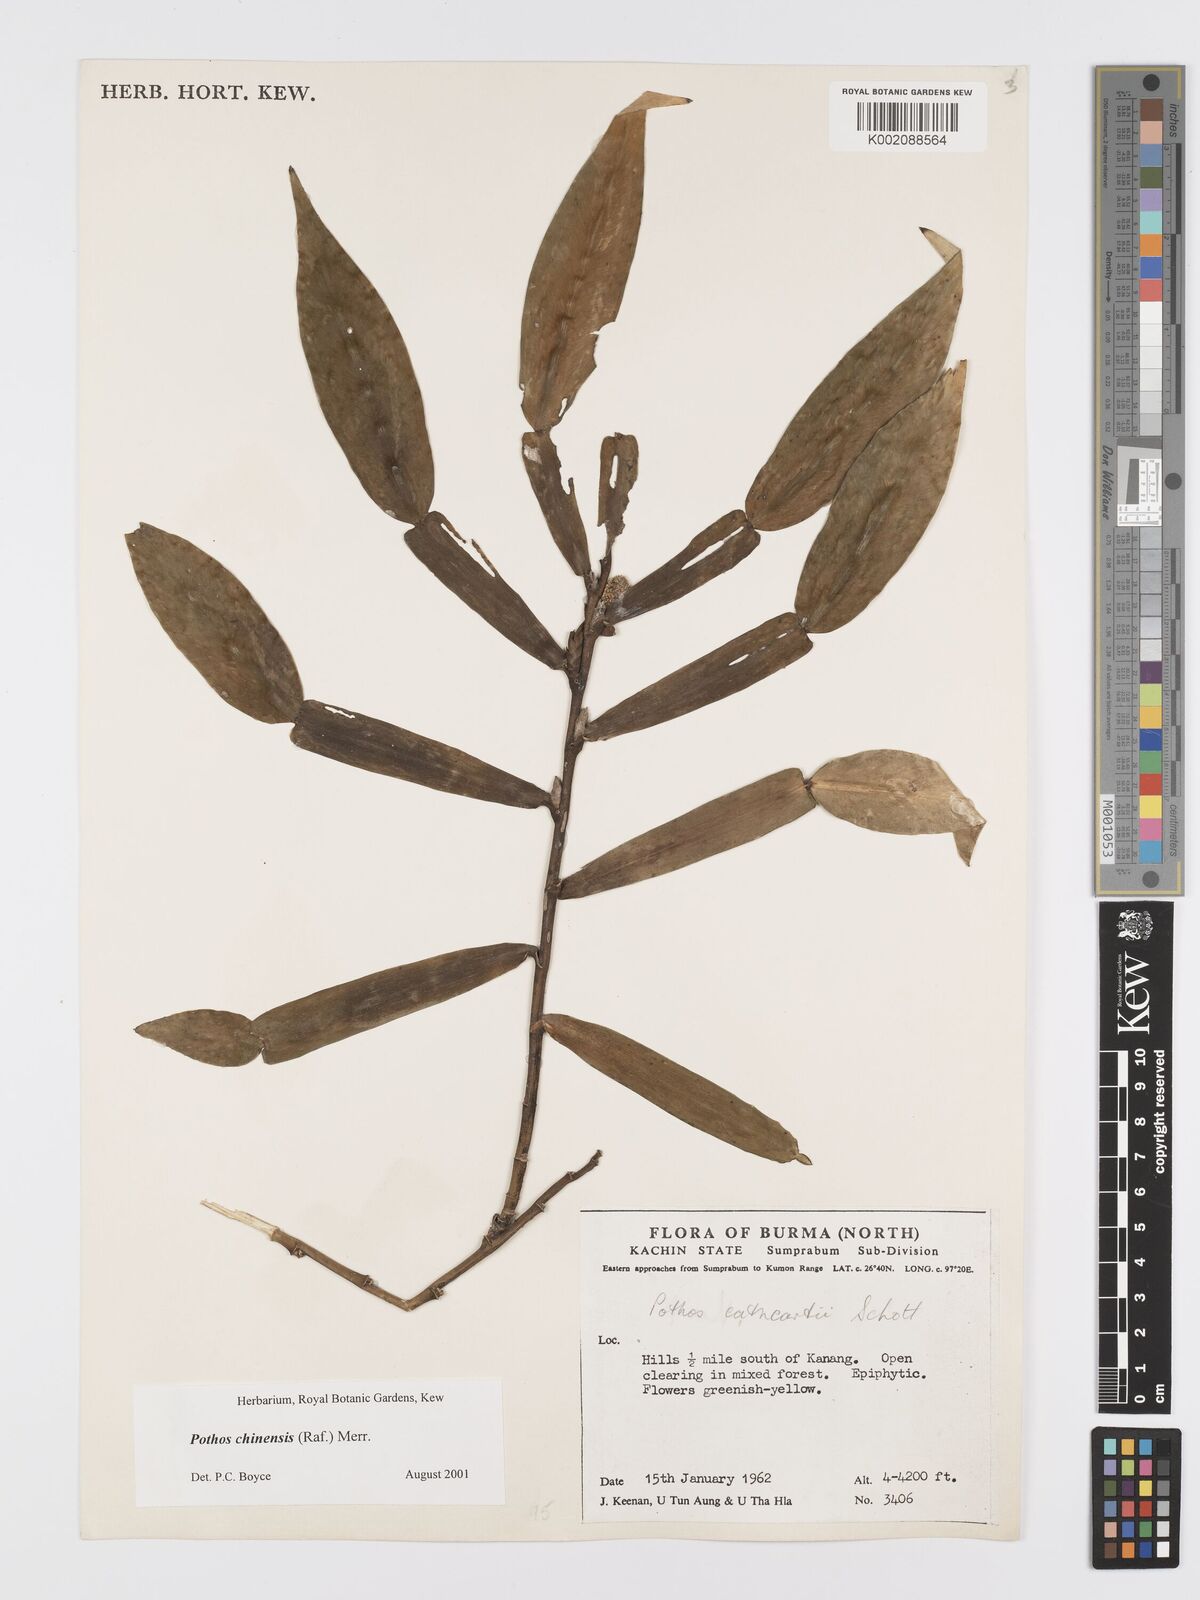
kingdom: Plantae
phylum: Tracheophyta
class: Liliopsida
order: Alismatales
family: Araceae
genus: Pothos
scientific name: Pothos chinensis
